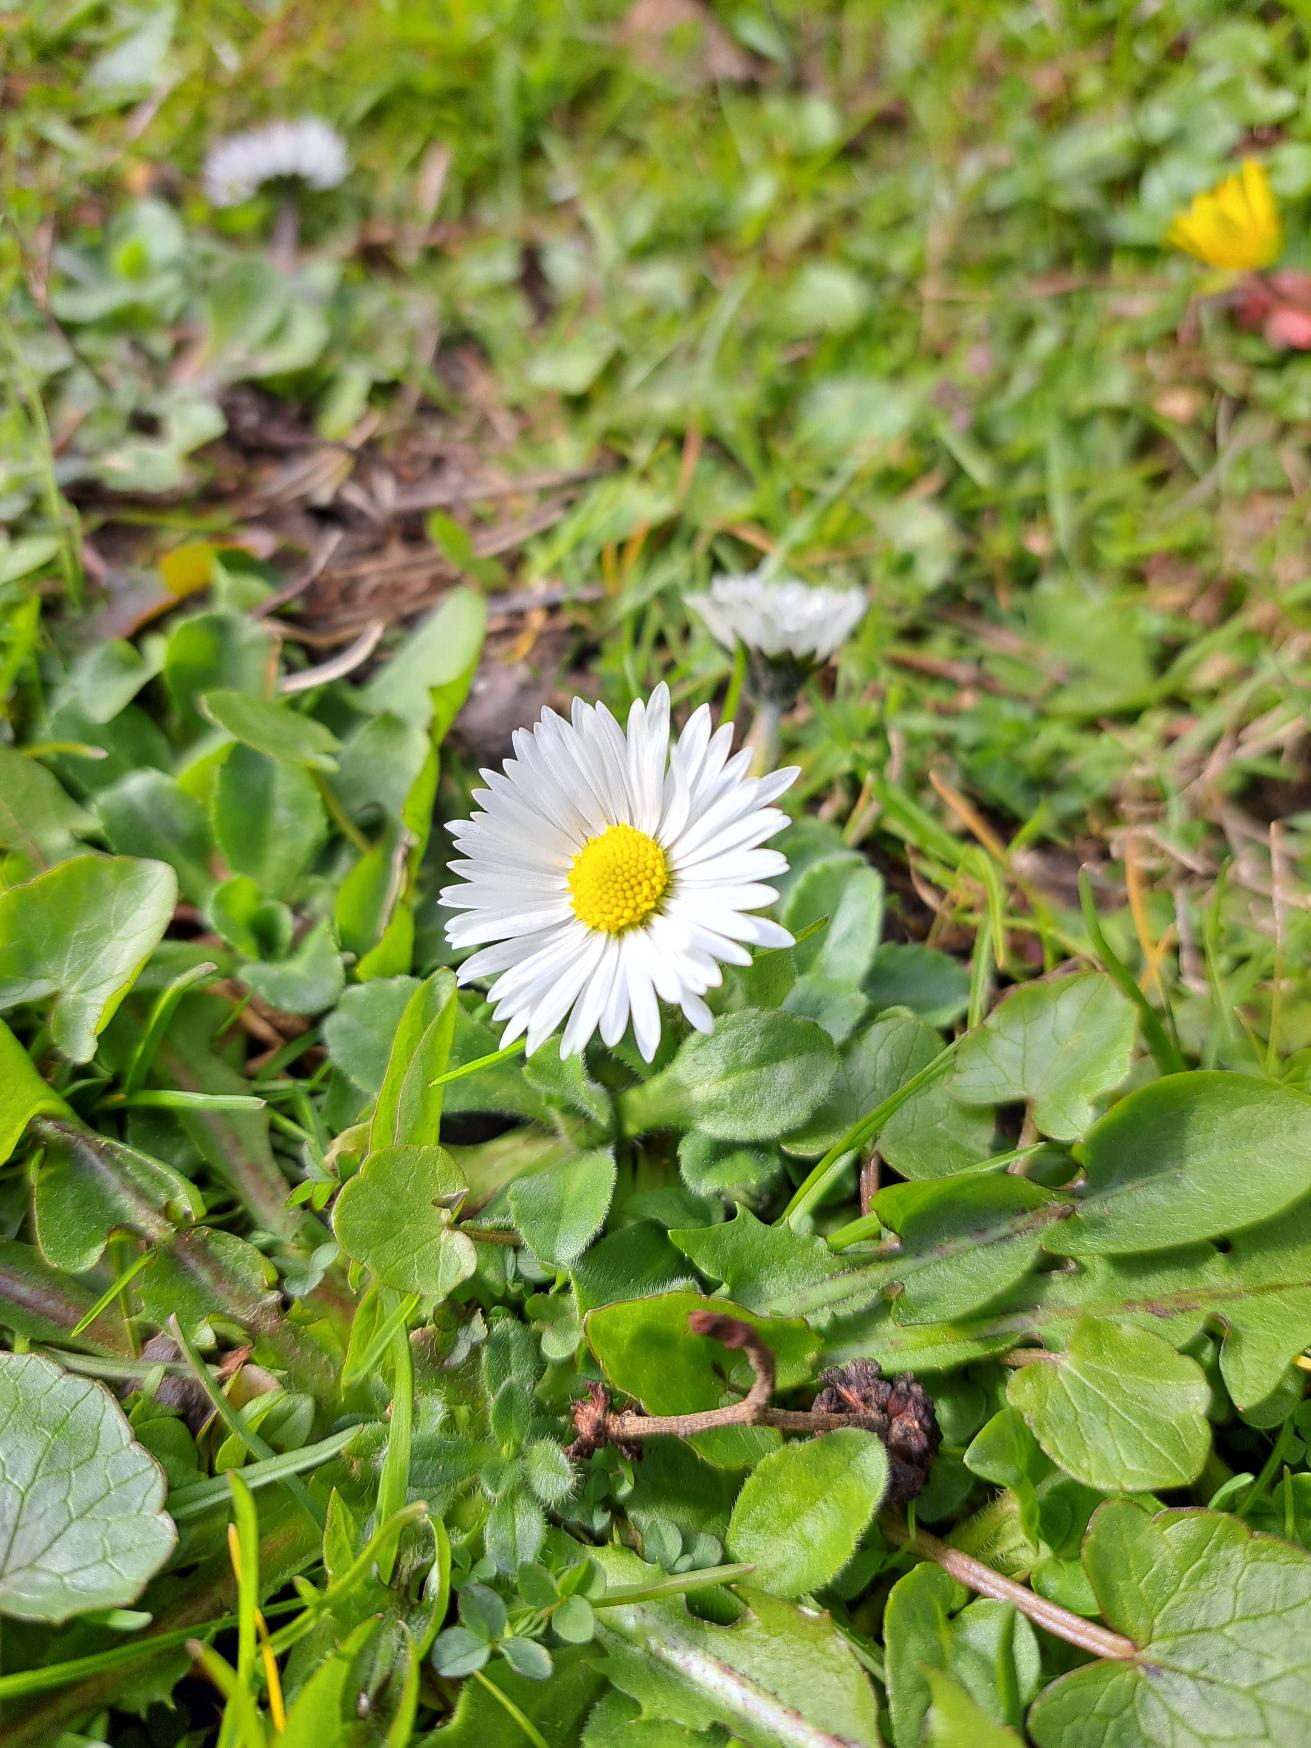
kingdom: Plantae
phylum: Tracheophyta
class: Magnoliopsida
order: Asterales
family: Asteraceae
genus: Bellis
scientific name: Bellis perennis
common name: Tusindfryd
